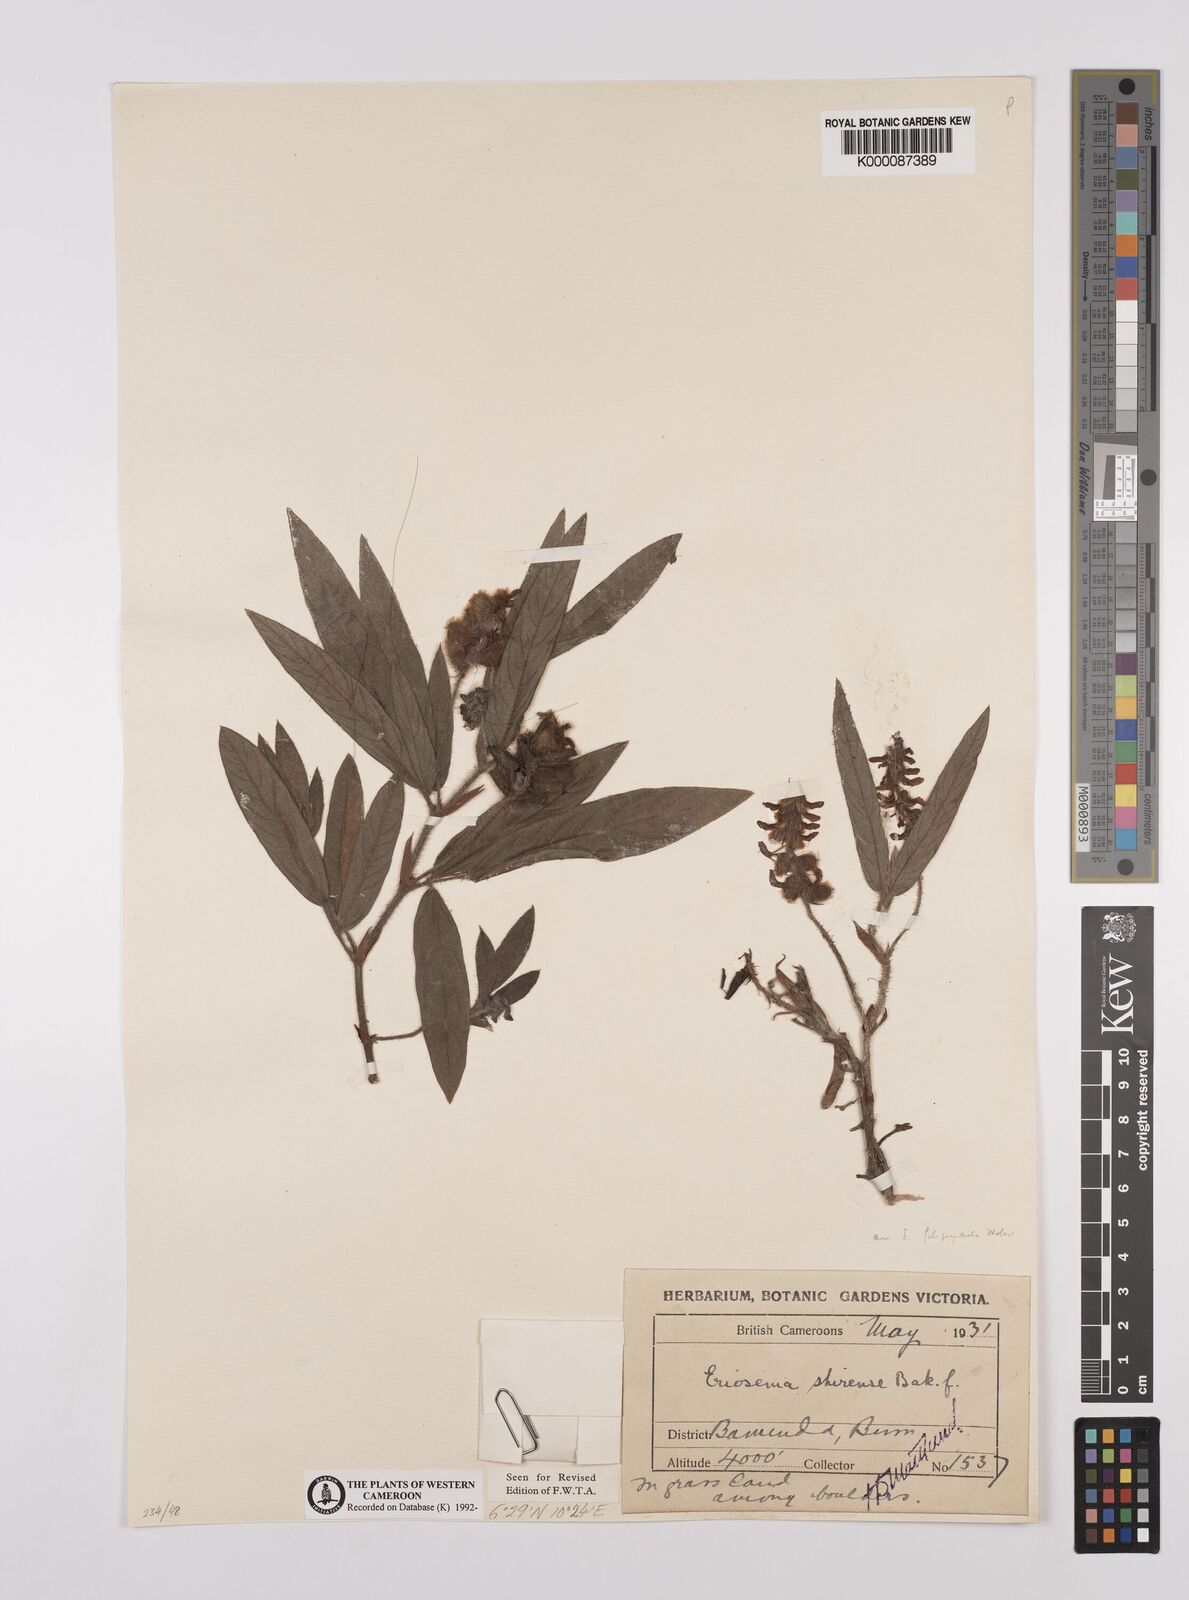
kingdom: Plantae
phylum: Tracheophyta
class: Magnoliopsida
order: Fabales
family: Fabaceae
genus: Eriosema
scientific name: Eriosema shirense
